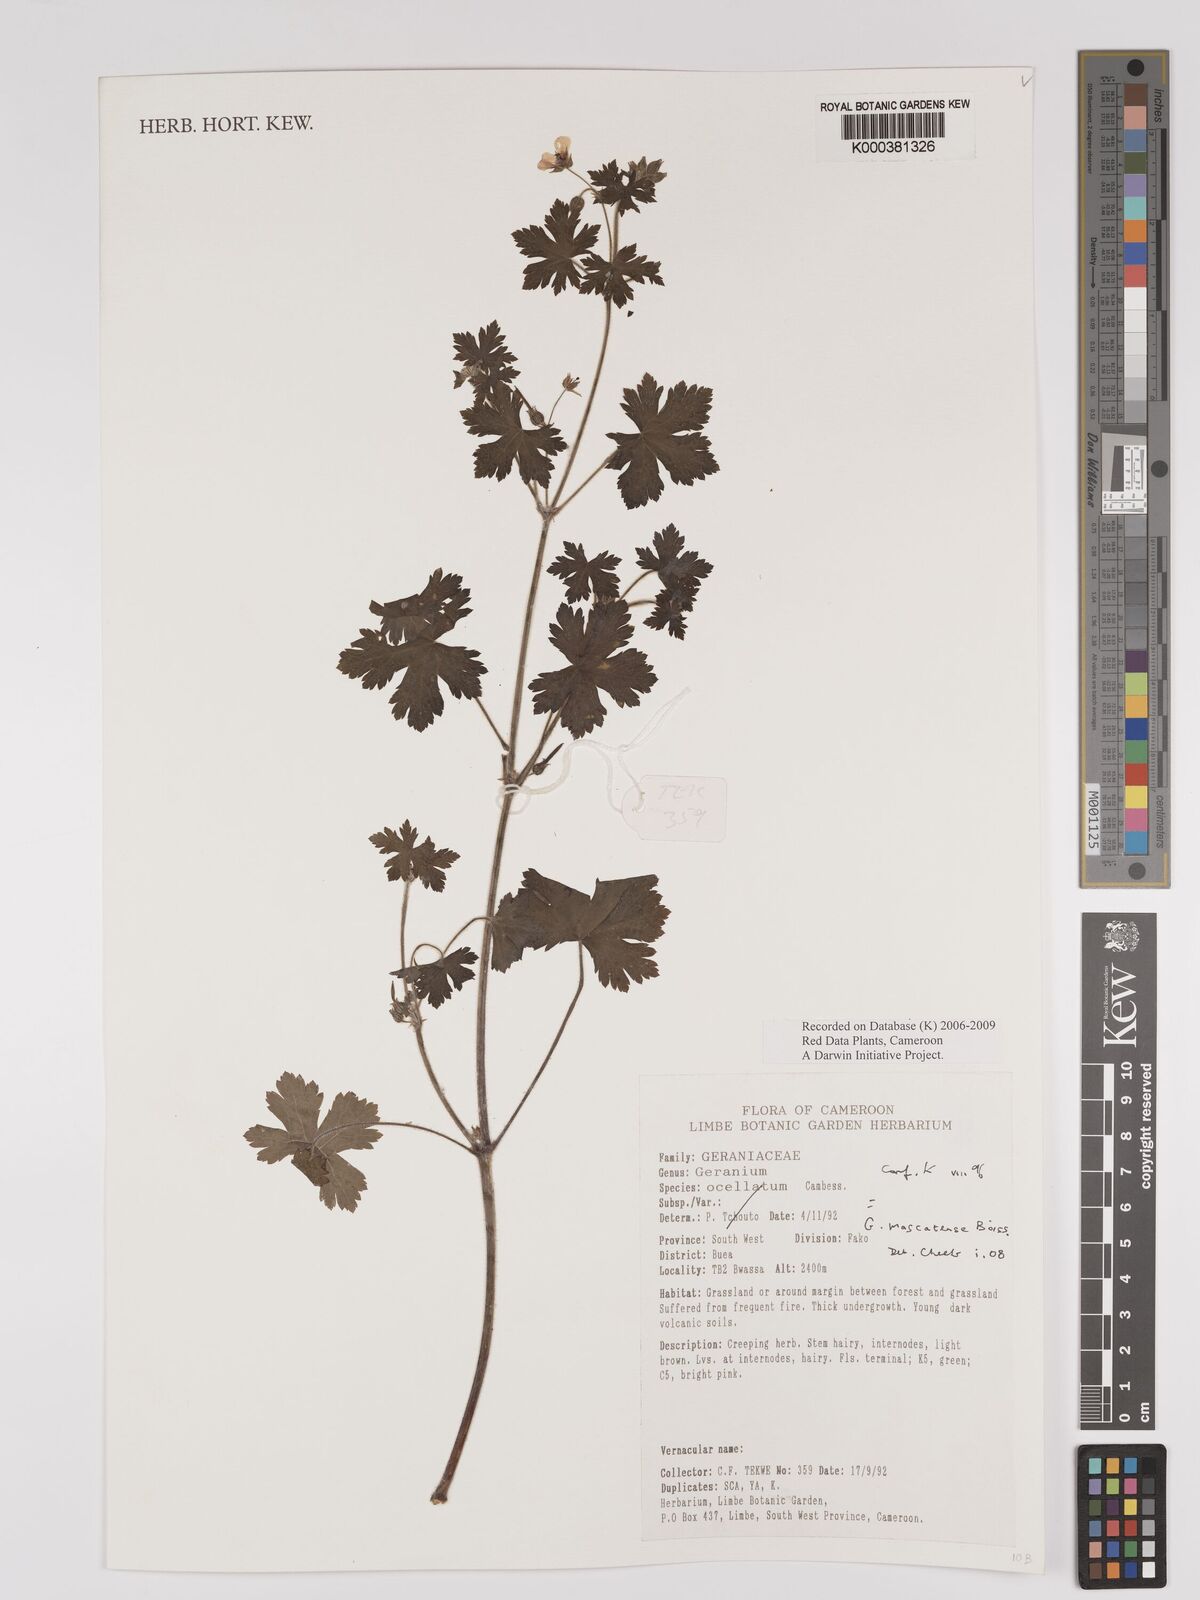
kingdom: Plantae
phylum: Tracheophyta
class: Magnoliopsida
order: Geraniales
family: Geraniaceae
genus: Geranium
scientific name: Geranium mascatense
